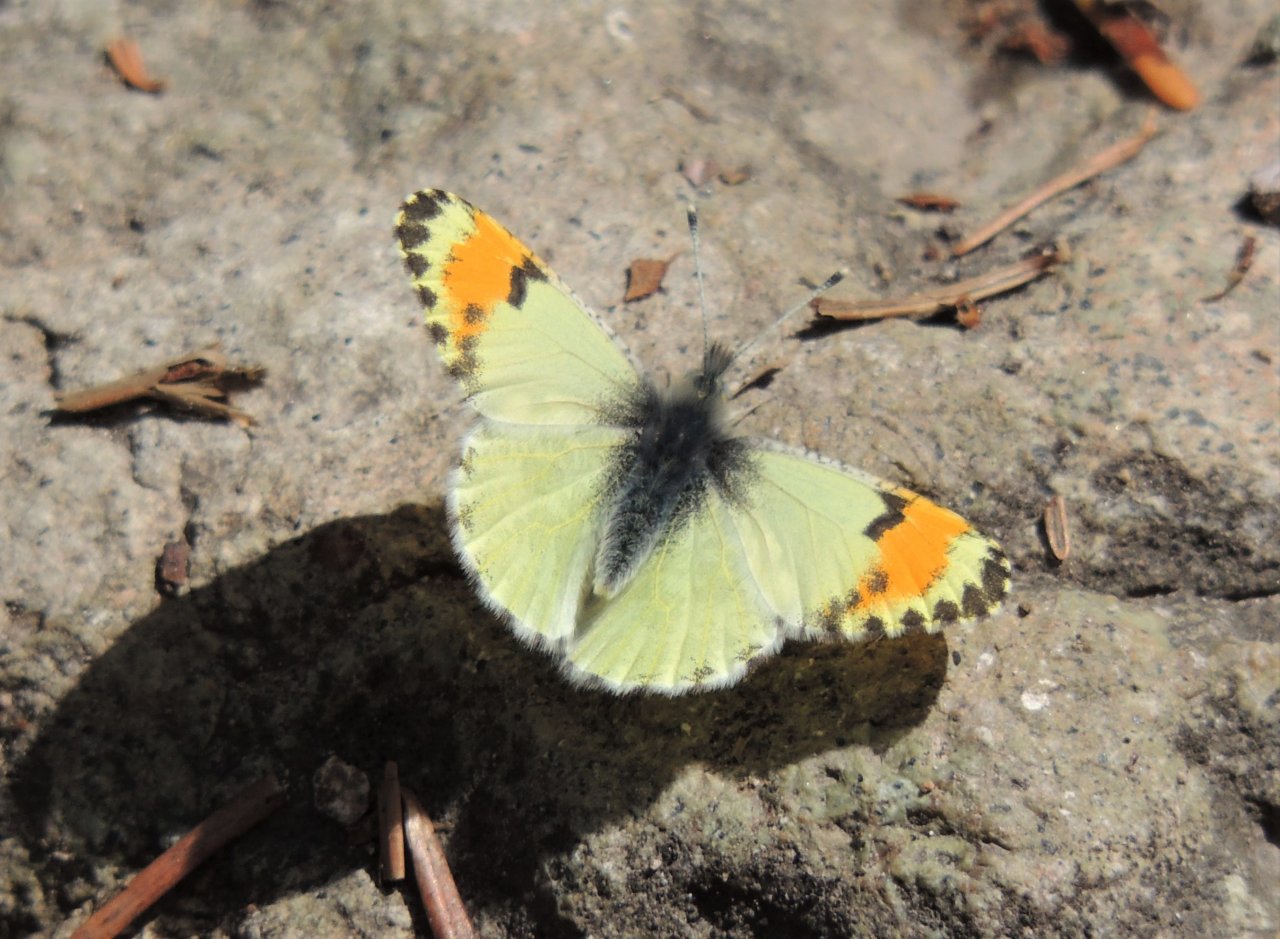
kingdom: Animalia
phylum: Arthropoda
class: Insecta
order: Lepidoptera
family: Pieridae
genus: Anthocharis
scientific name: Anthocharis sara
